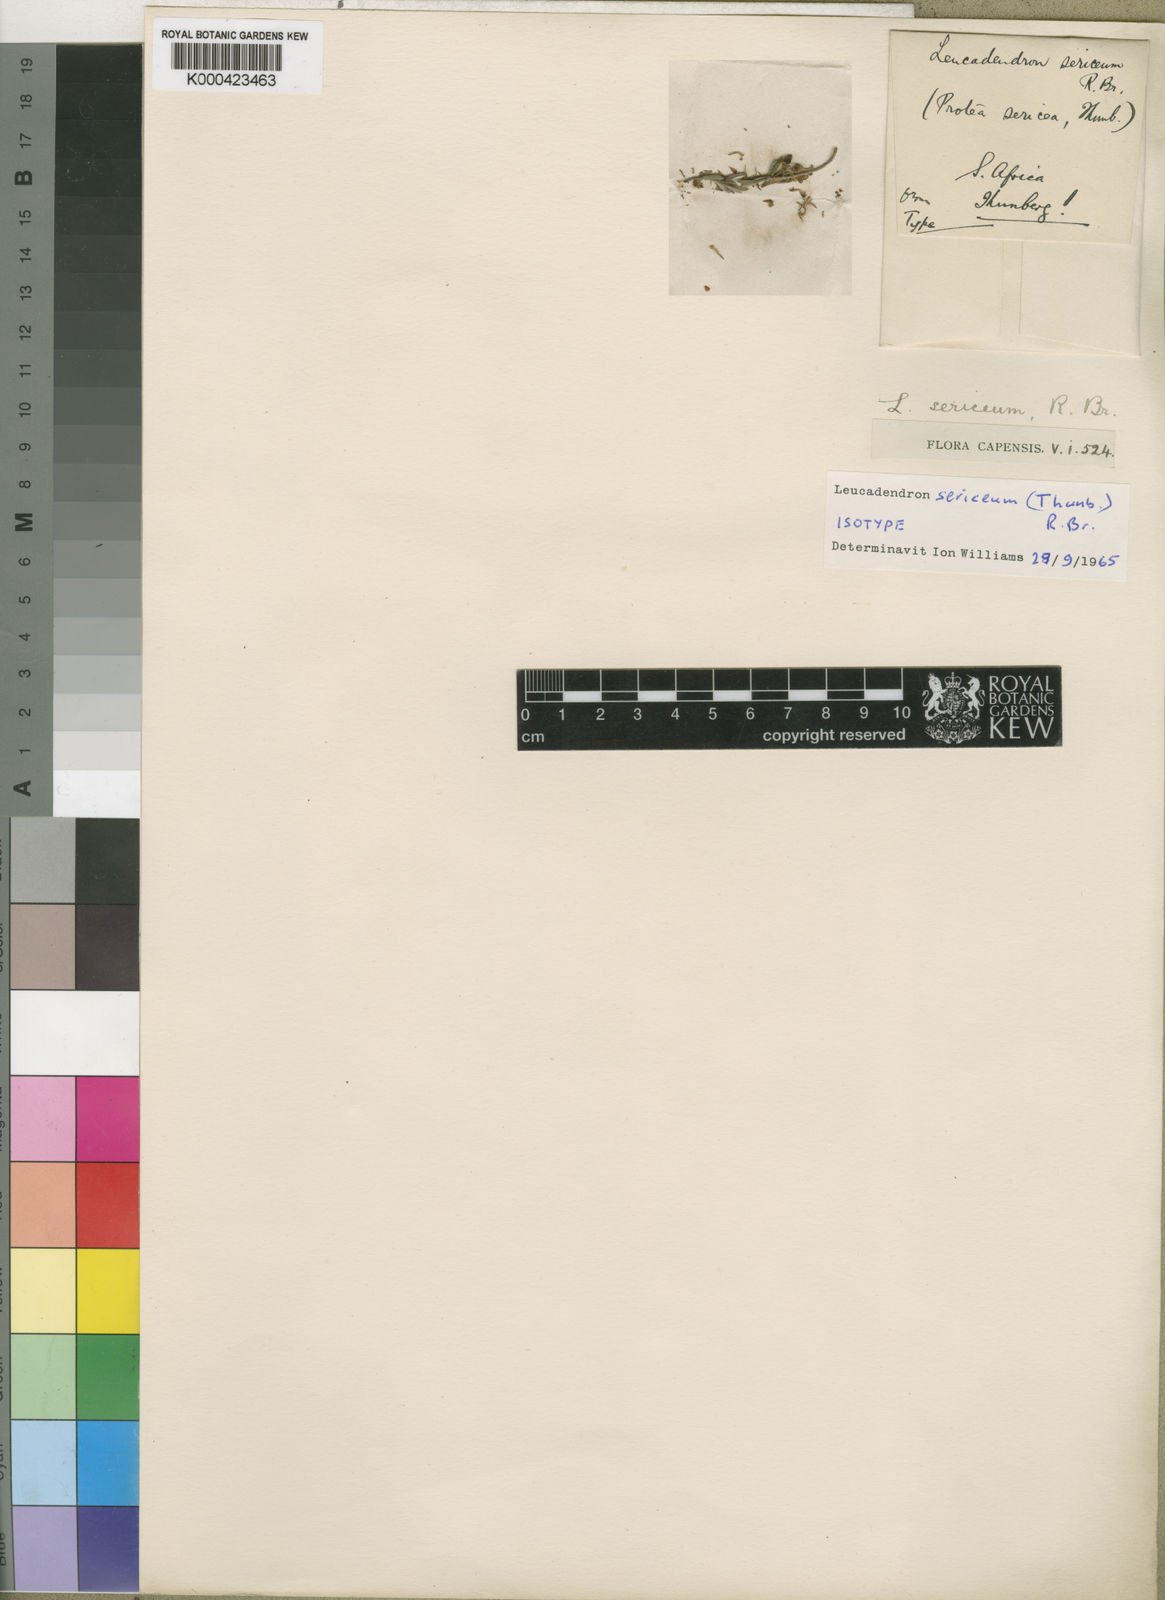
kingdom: Plantae
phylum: Tracheophyta
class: Magnoliopsida
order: Proteales
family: Proteaceae
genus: Leucadendron
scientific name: Leucadendron sericeum
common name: Wabooms conebush
